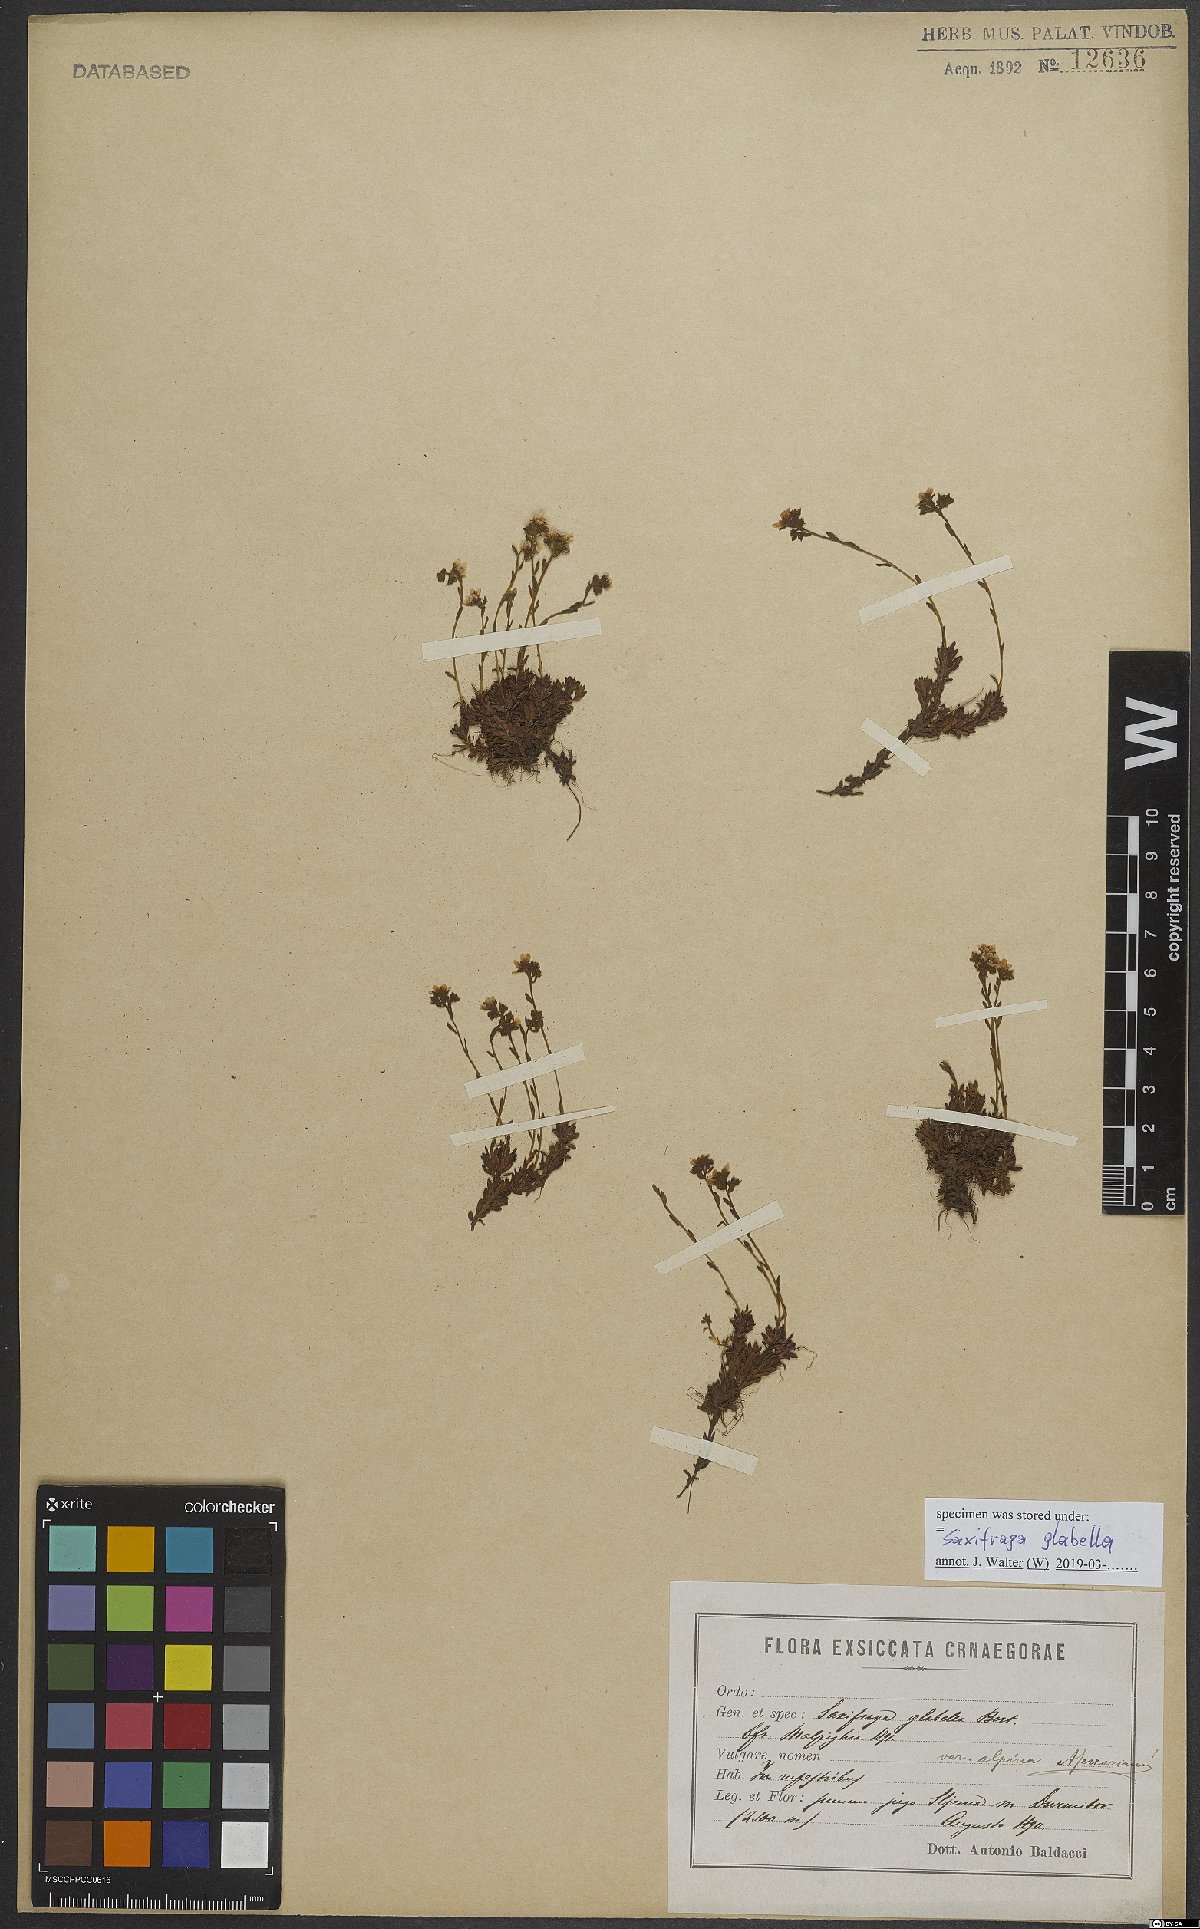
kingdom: Plantae
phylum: Tracheophyta
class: Magnoliopsida
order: Saxifragales
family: Saxifragaceae
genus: Saxifraga
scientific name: Saxifraga glabella
